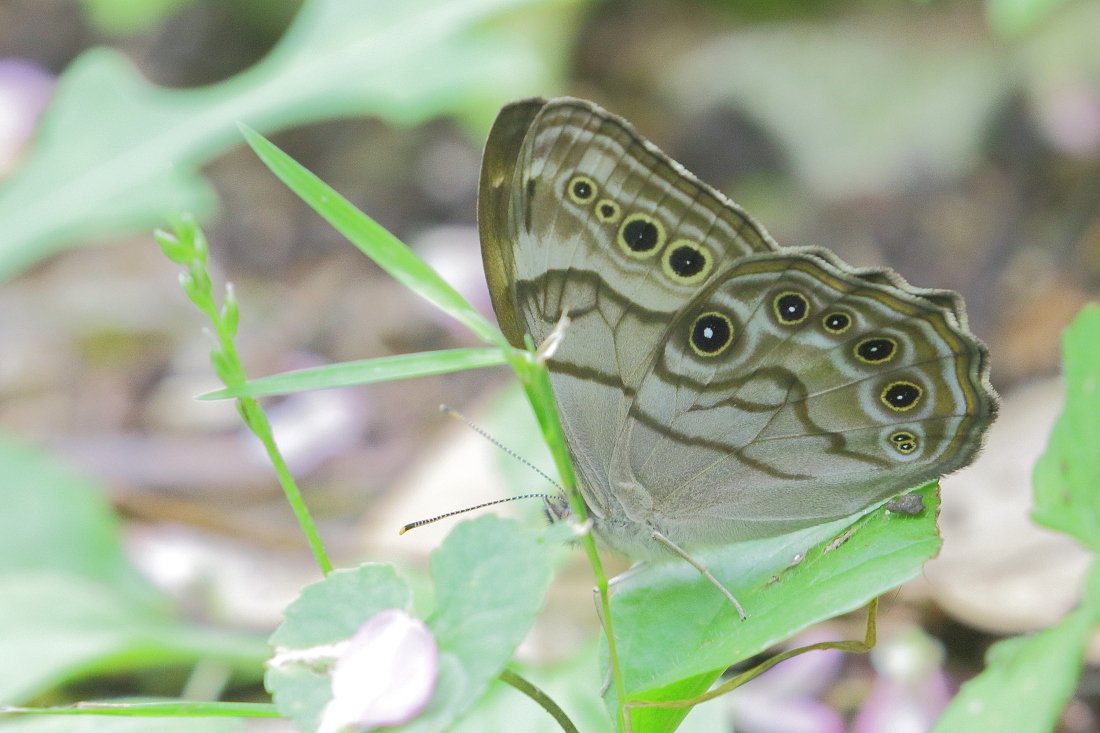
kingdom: Animalia
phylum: Arthropoda
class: Insecta
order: Lepidoptera
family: Nymphalidae
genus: Lethe
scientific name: Lethe anthedon
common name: Northern Pearly-Eye
